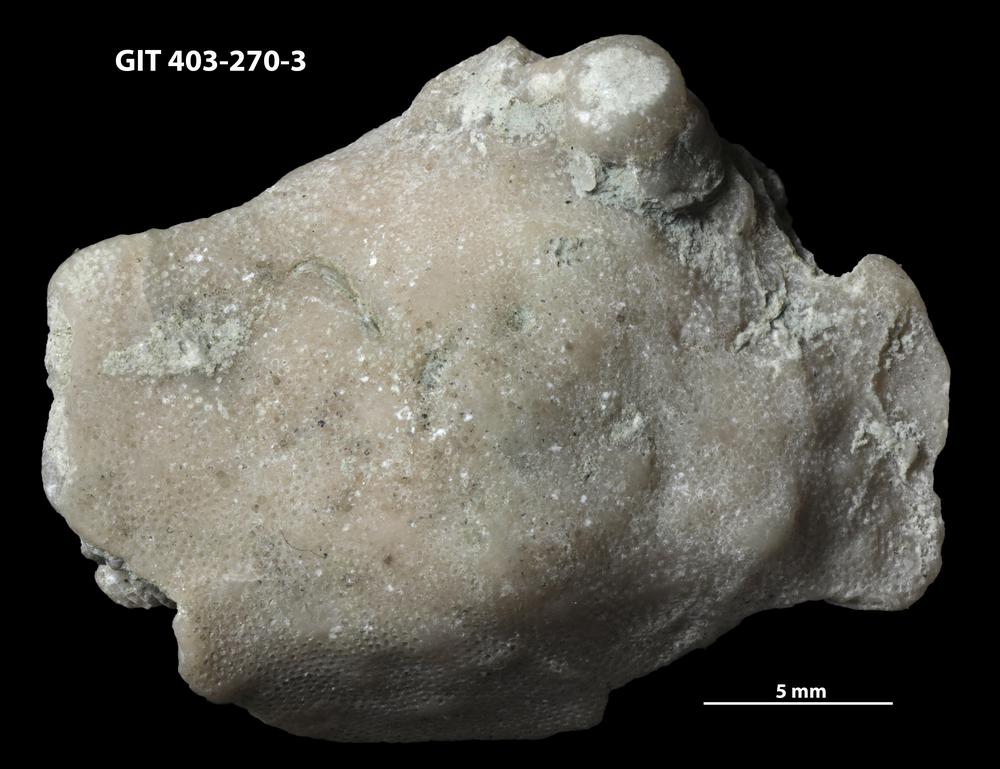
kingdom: Animalia
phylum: Bryozoa
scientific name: Bryozoa
